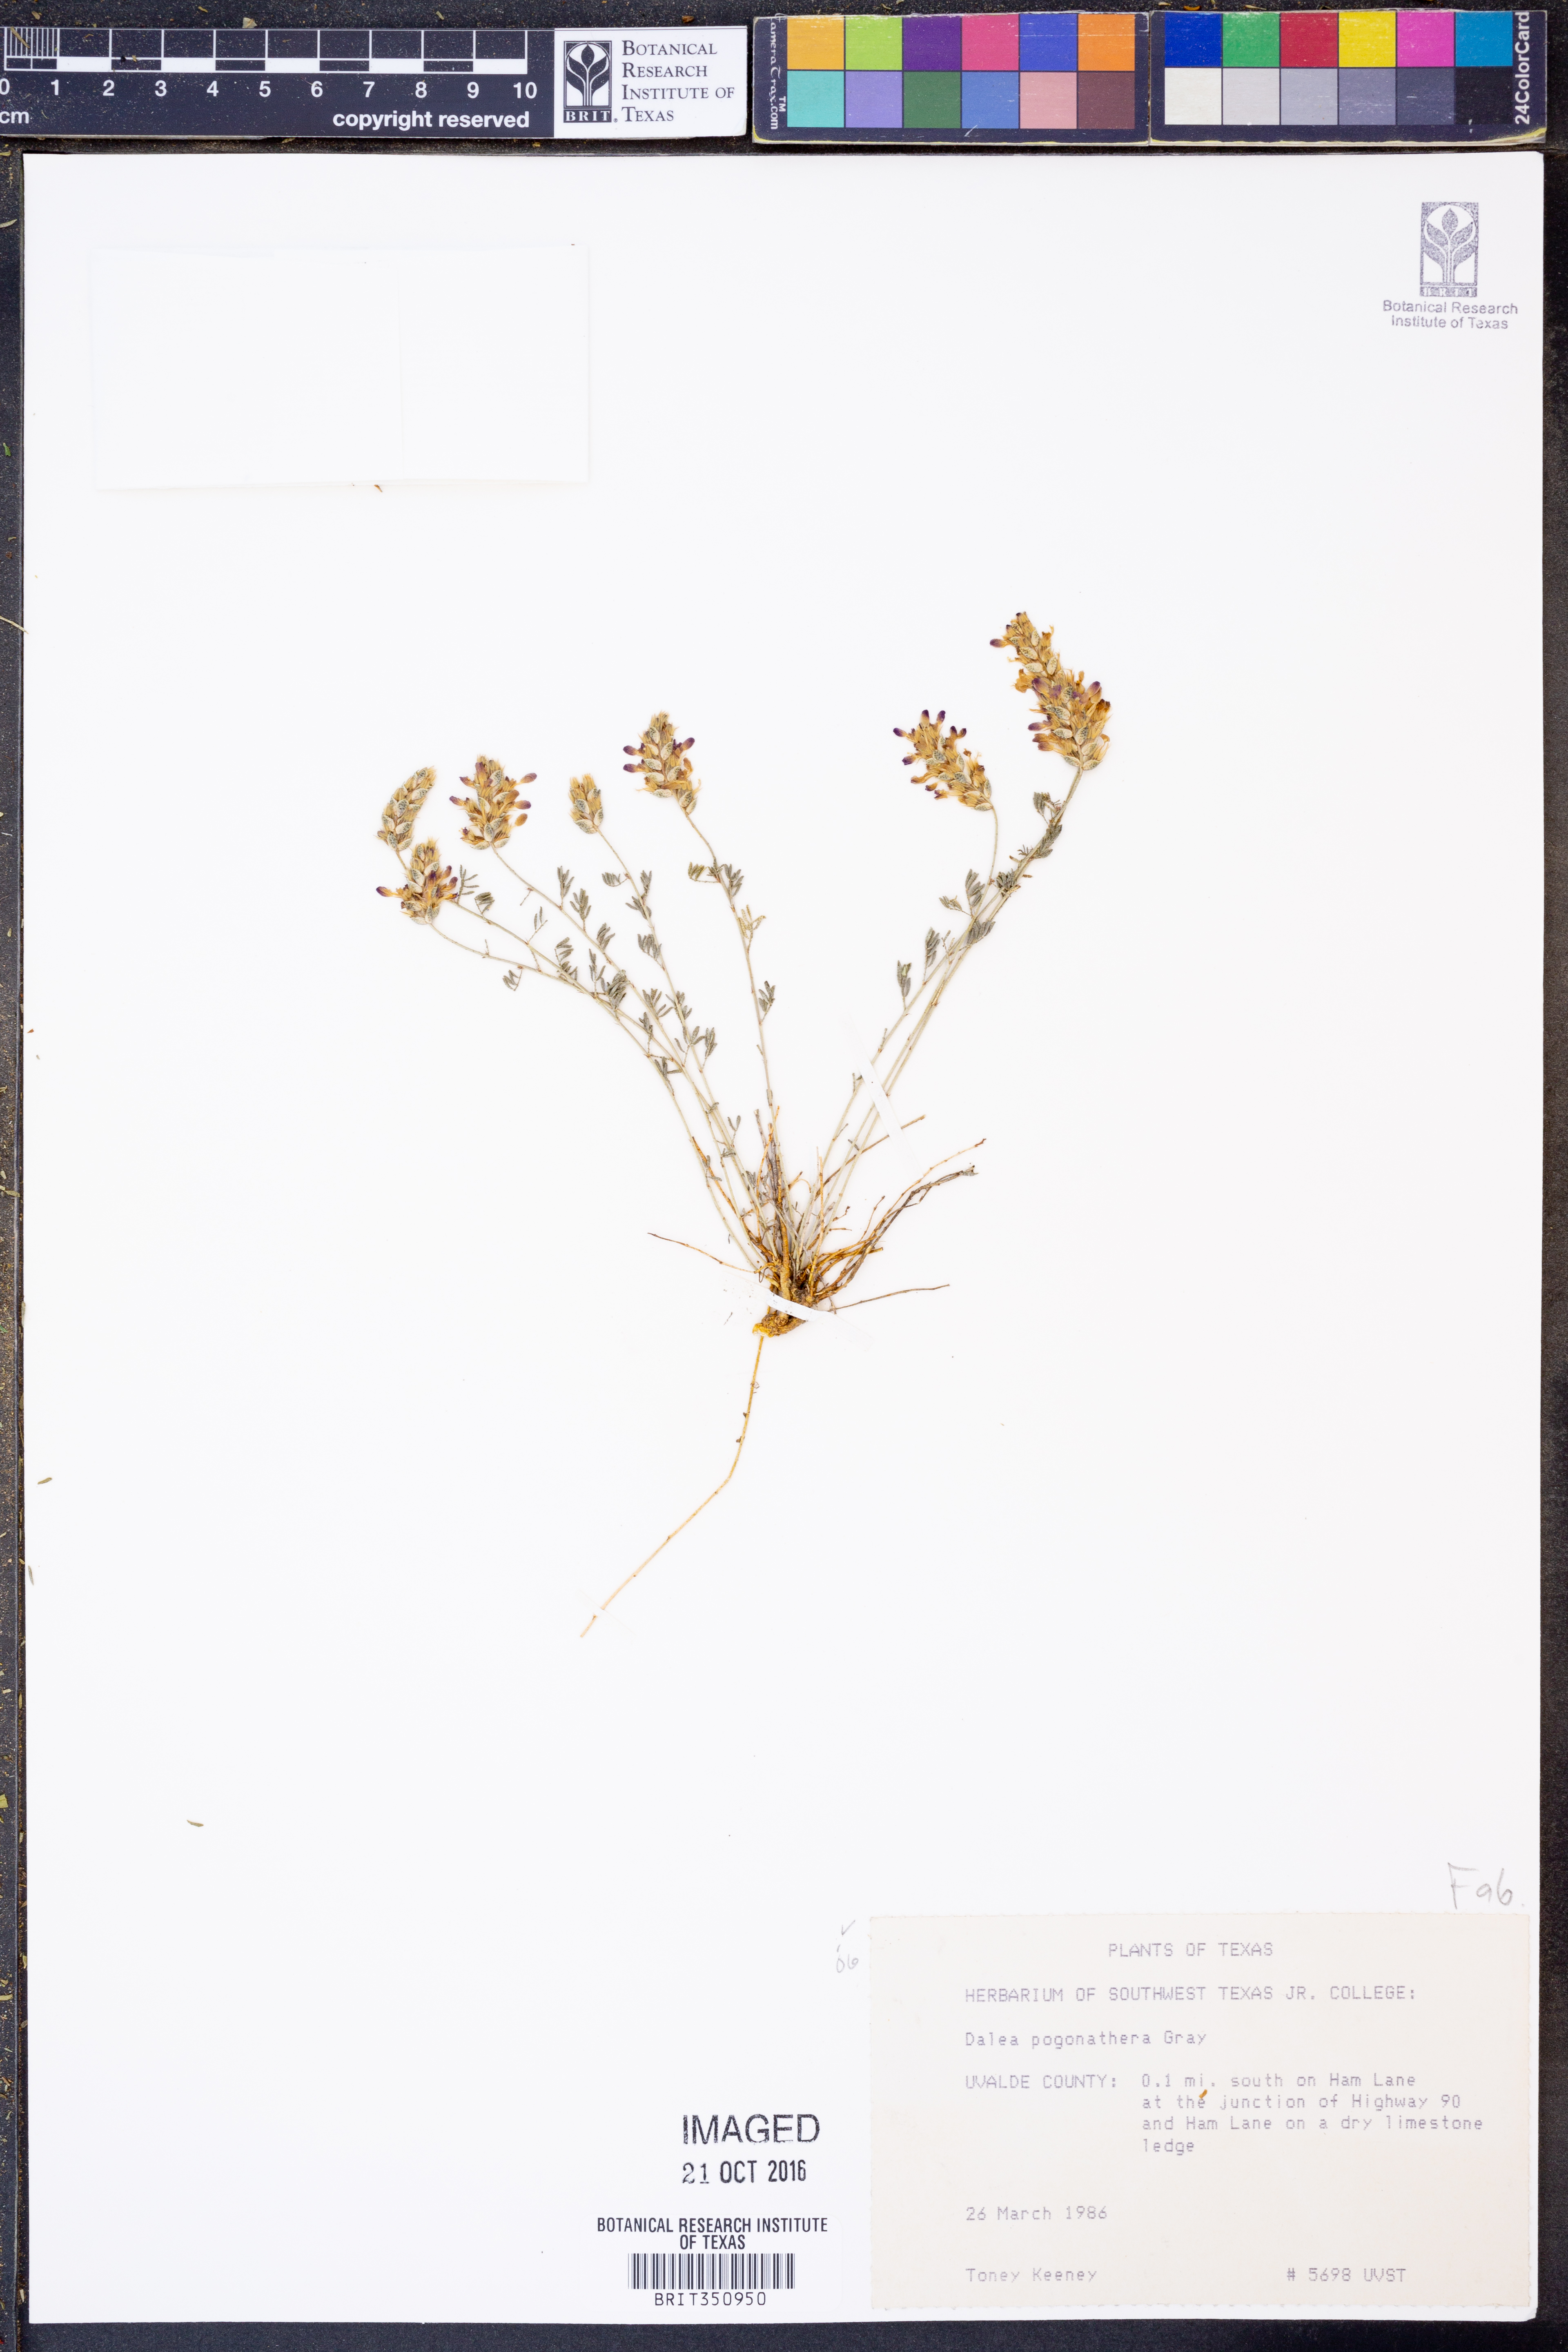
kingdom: Plantae
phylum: Tracheophyta
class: Magnoliopsida
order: Fabales
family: Fabaceae
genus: Dalea
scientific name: Dalea pogonathera
